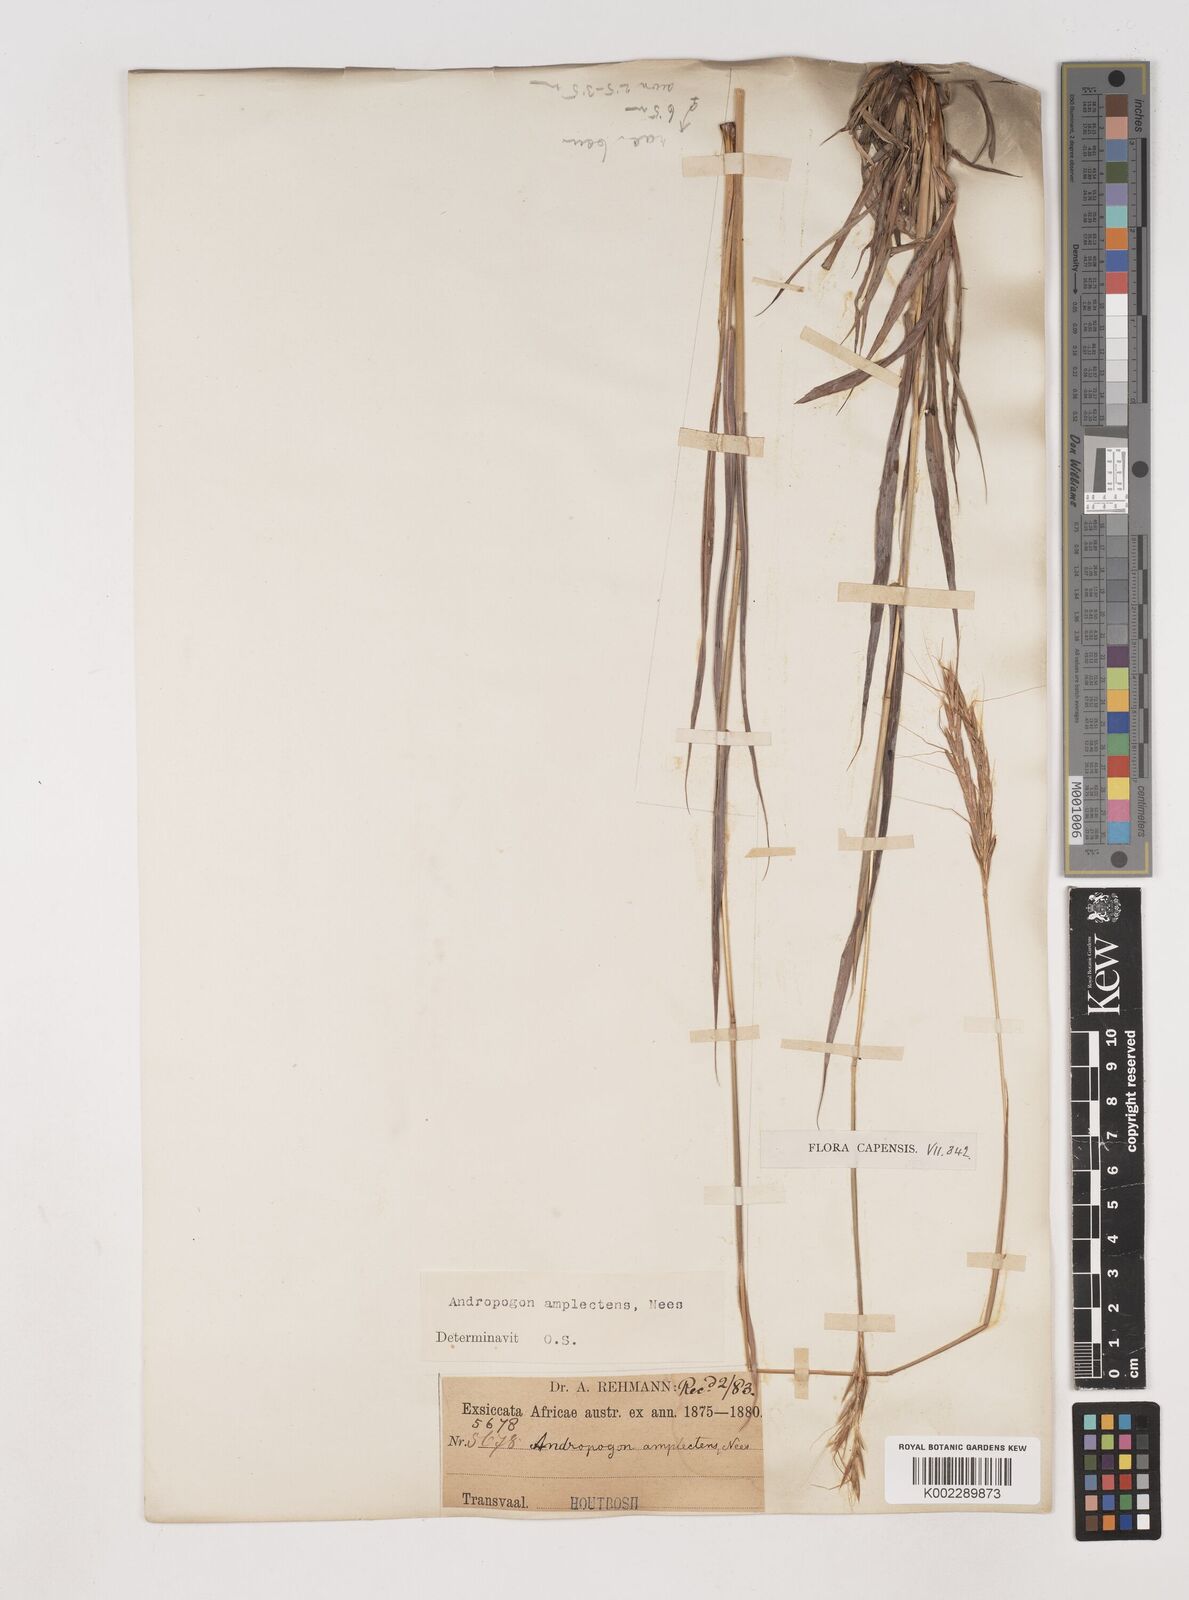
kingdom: Plantae
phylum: Tracheophyta
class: Liliopsida
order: Poales
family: Poaceae
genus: Diheteropogon
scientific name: Diheteropogon amplectens
